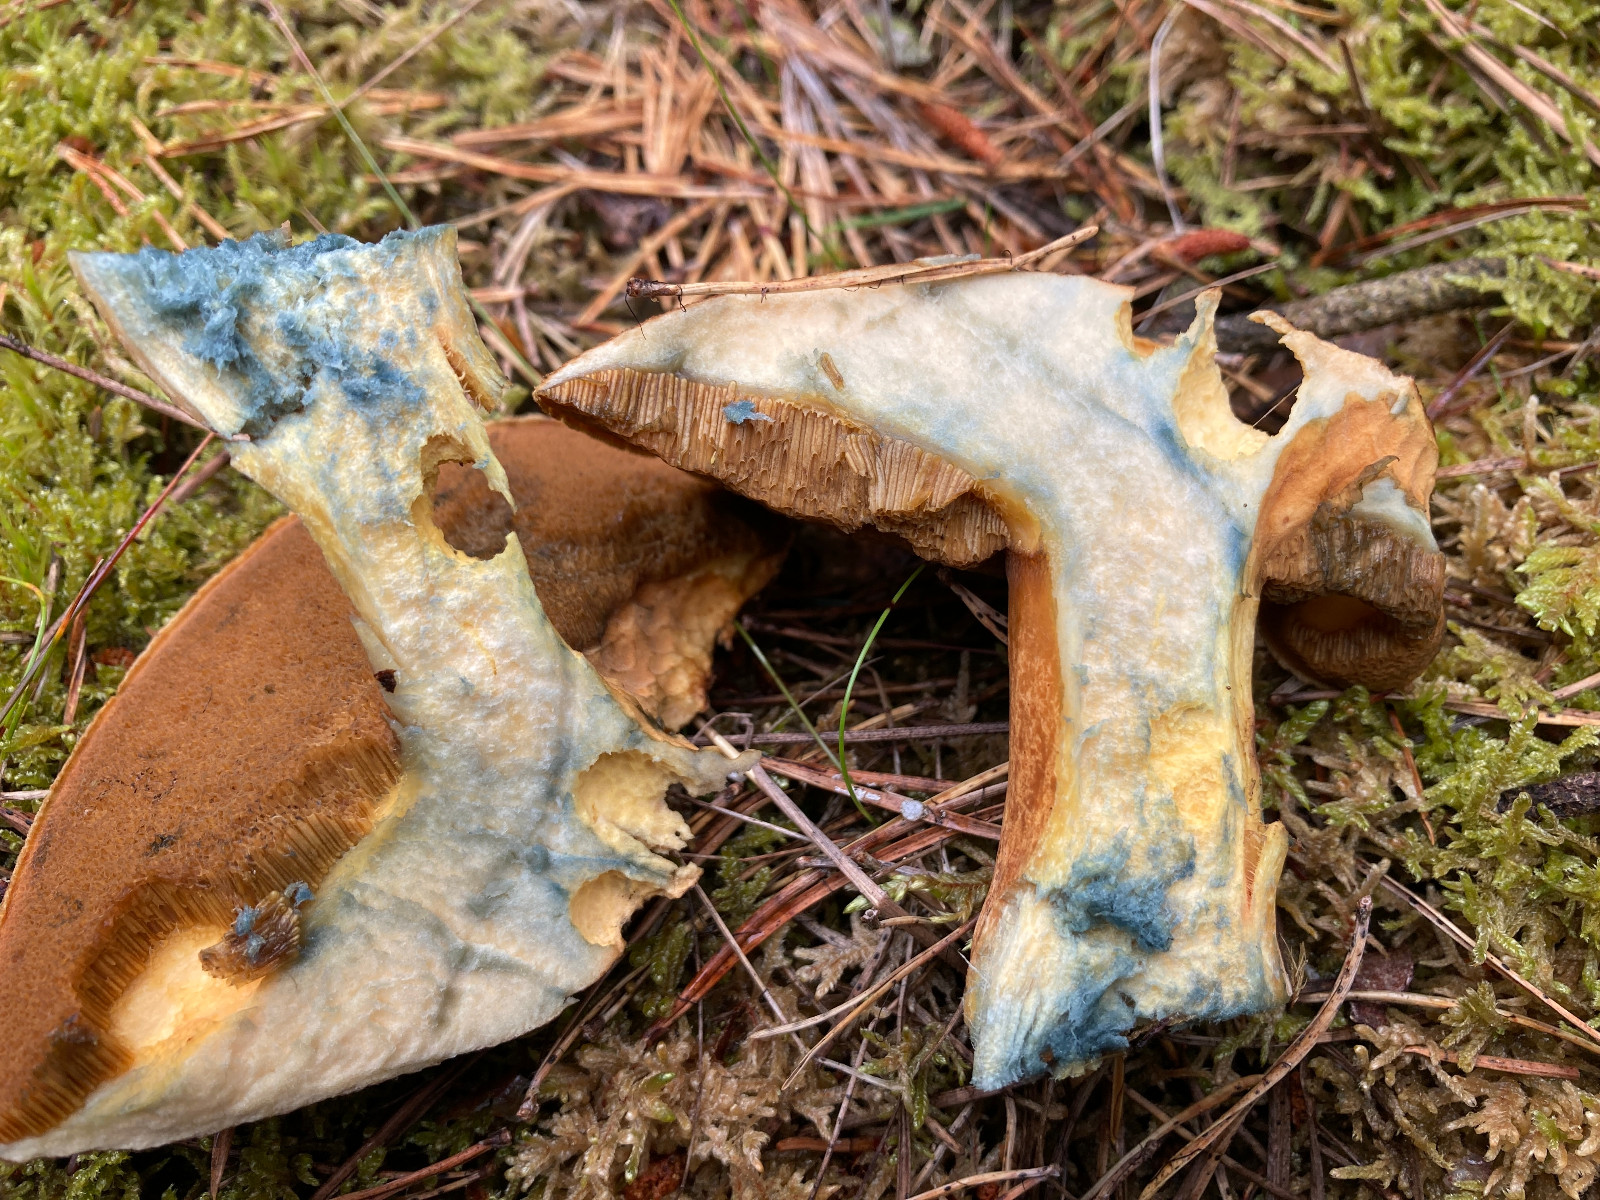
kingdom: Fungi
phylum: Basidiomycota
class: Agaricomycetes
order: Boletales
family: Suillaceae
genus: Suillus
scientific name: Suillus variegatus
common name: broget slimrørhat
